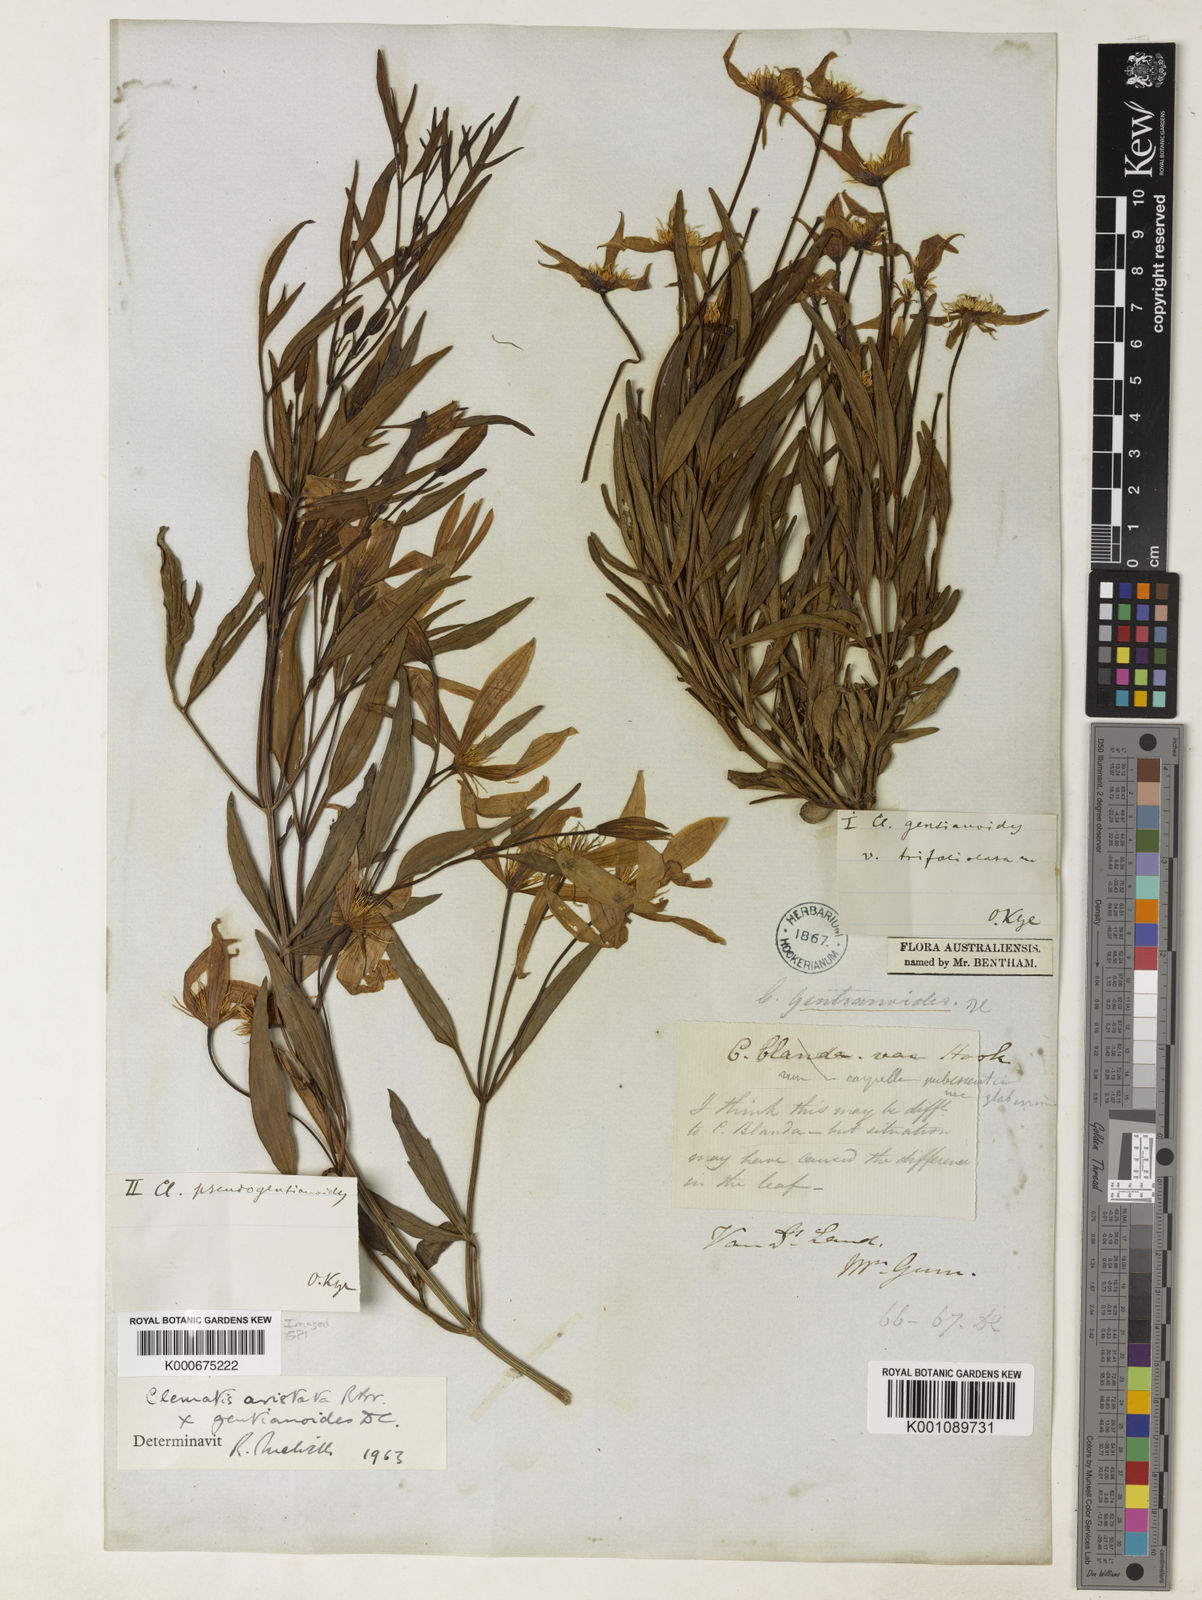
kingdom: Plantae
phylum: Tracheophyta
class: Magnoliopsida
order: Ranunculales
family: Ranunculaceae
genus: Clematis
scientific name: Clematis gentianoides
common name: Bushy clematis
